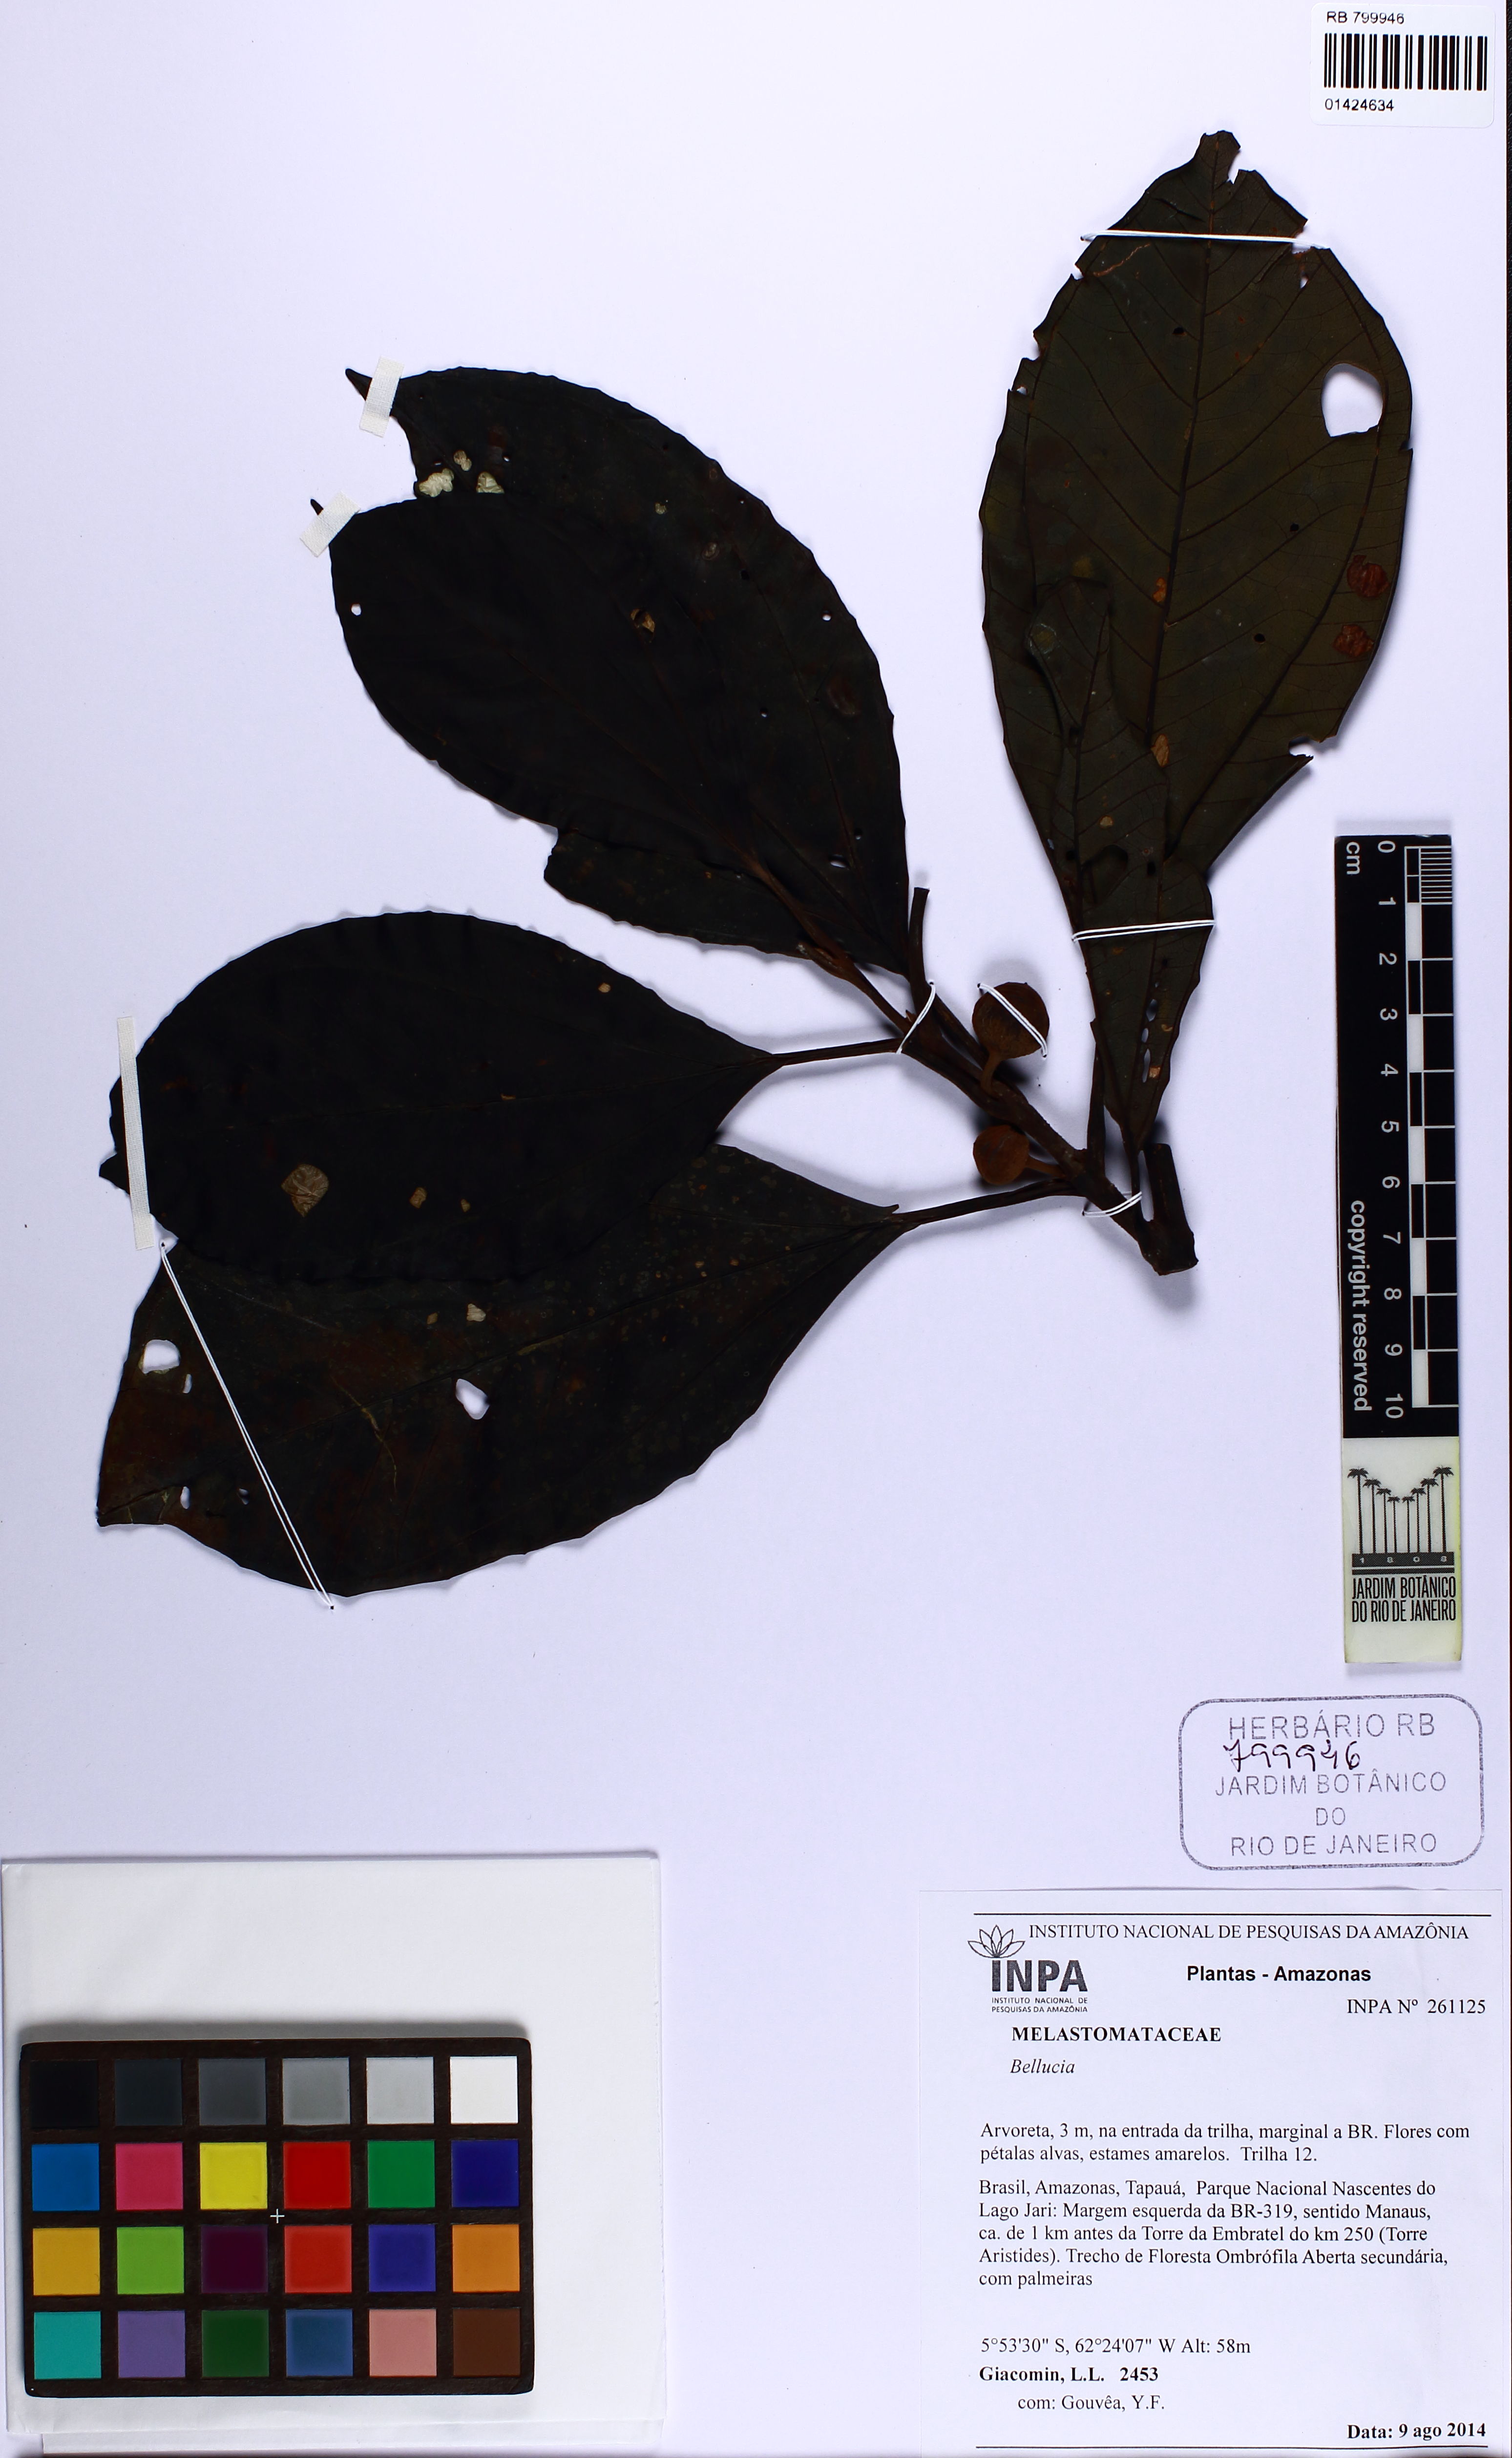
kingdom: Plantae
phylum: Tracheophyta
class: Magnoliopsida
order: Myrtales
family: Melastomataceae
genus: Bellucia
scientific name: Bellucia
